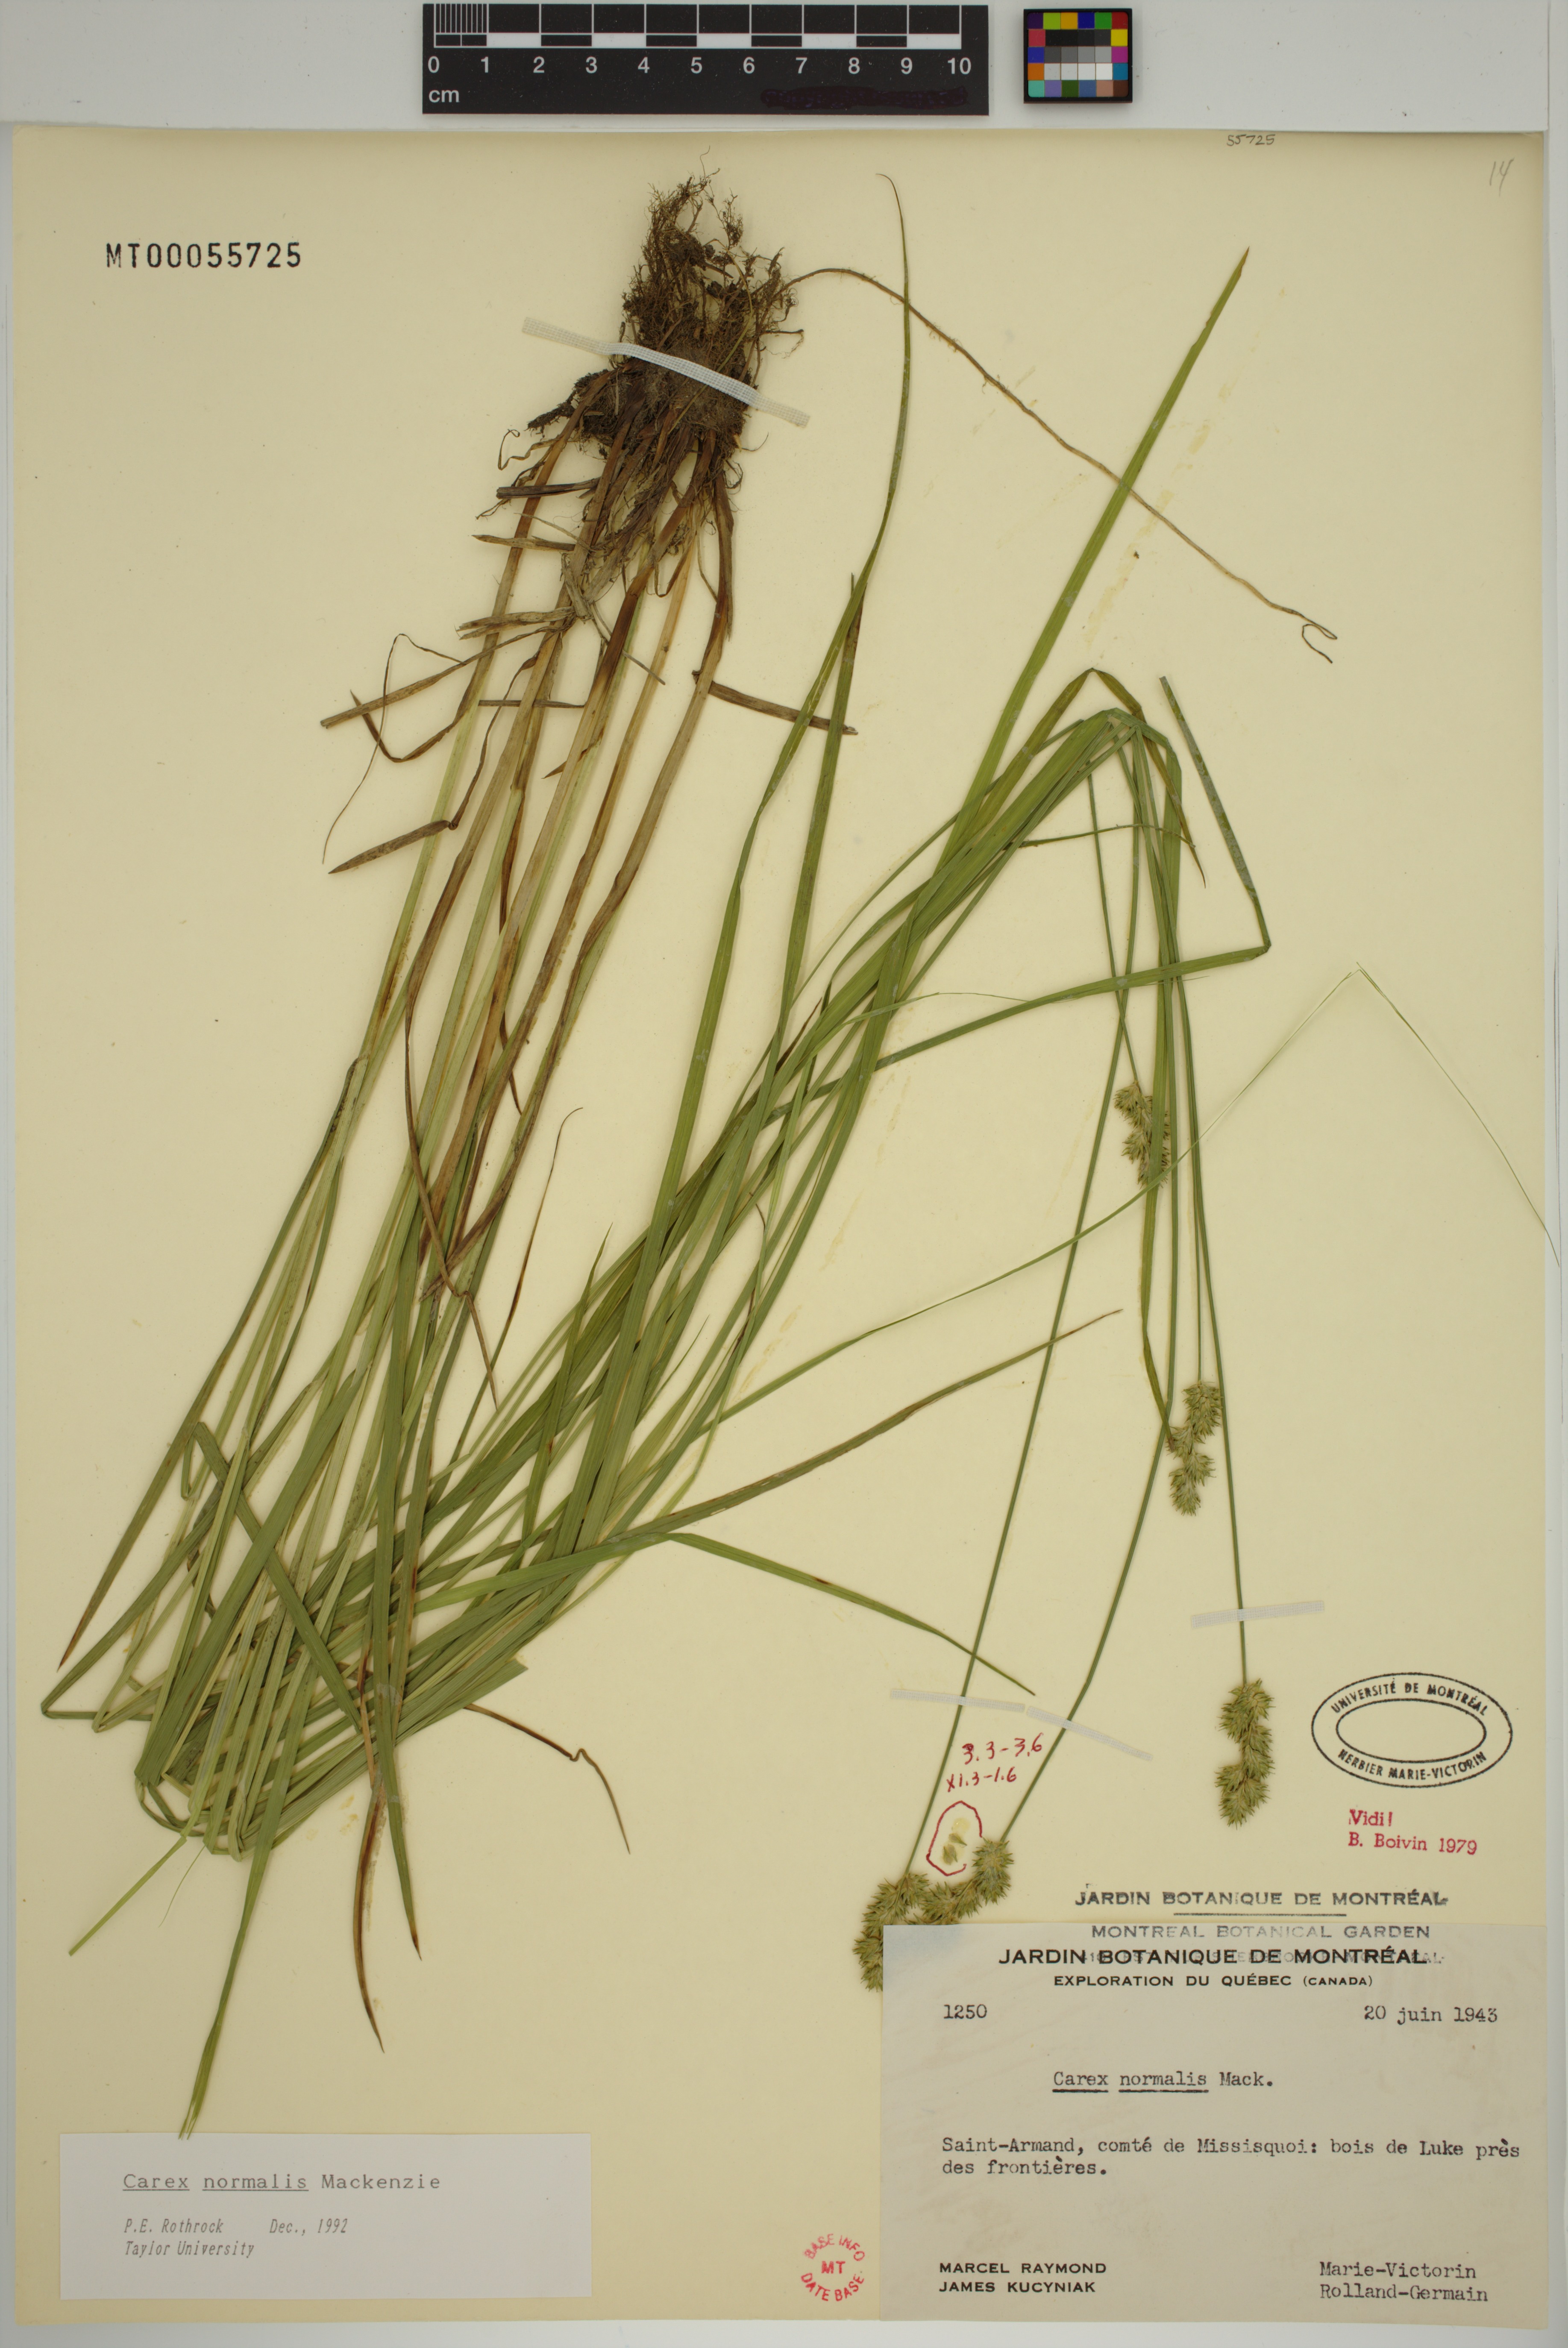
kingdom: Plantae
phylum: Tracheophyta
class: Liliopsida
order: Poales
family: Cyperaceae
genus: Carex
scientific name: Carex normalis
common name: Greater straw sedge
